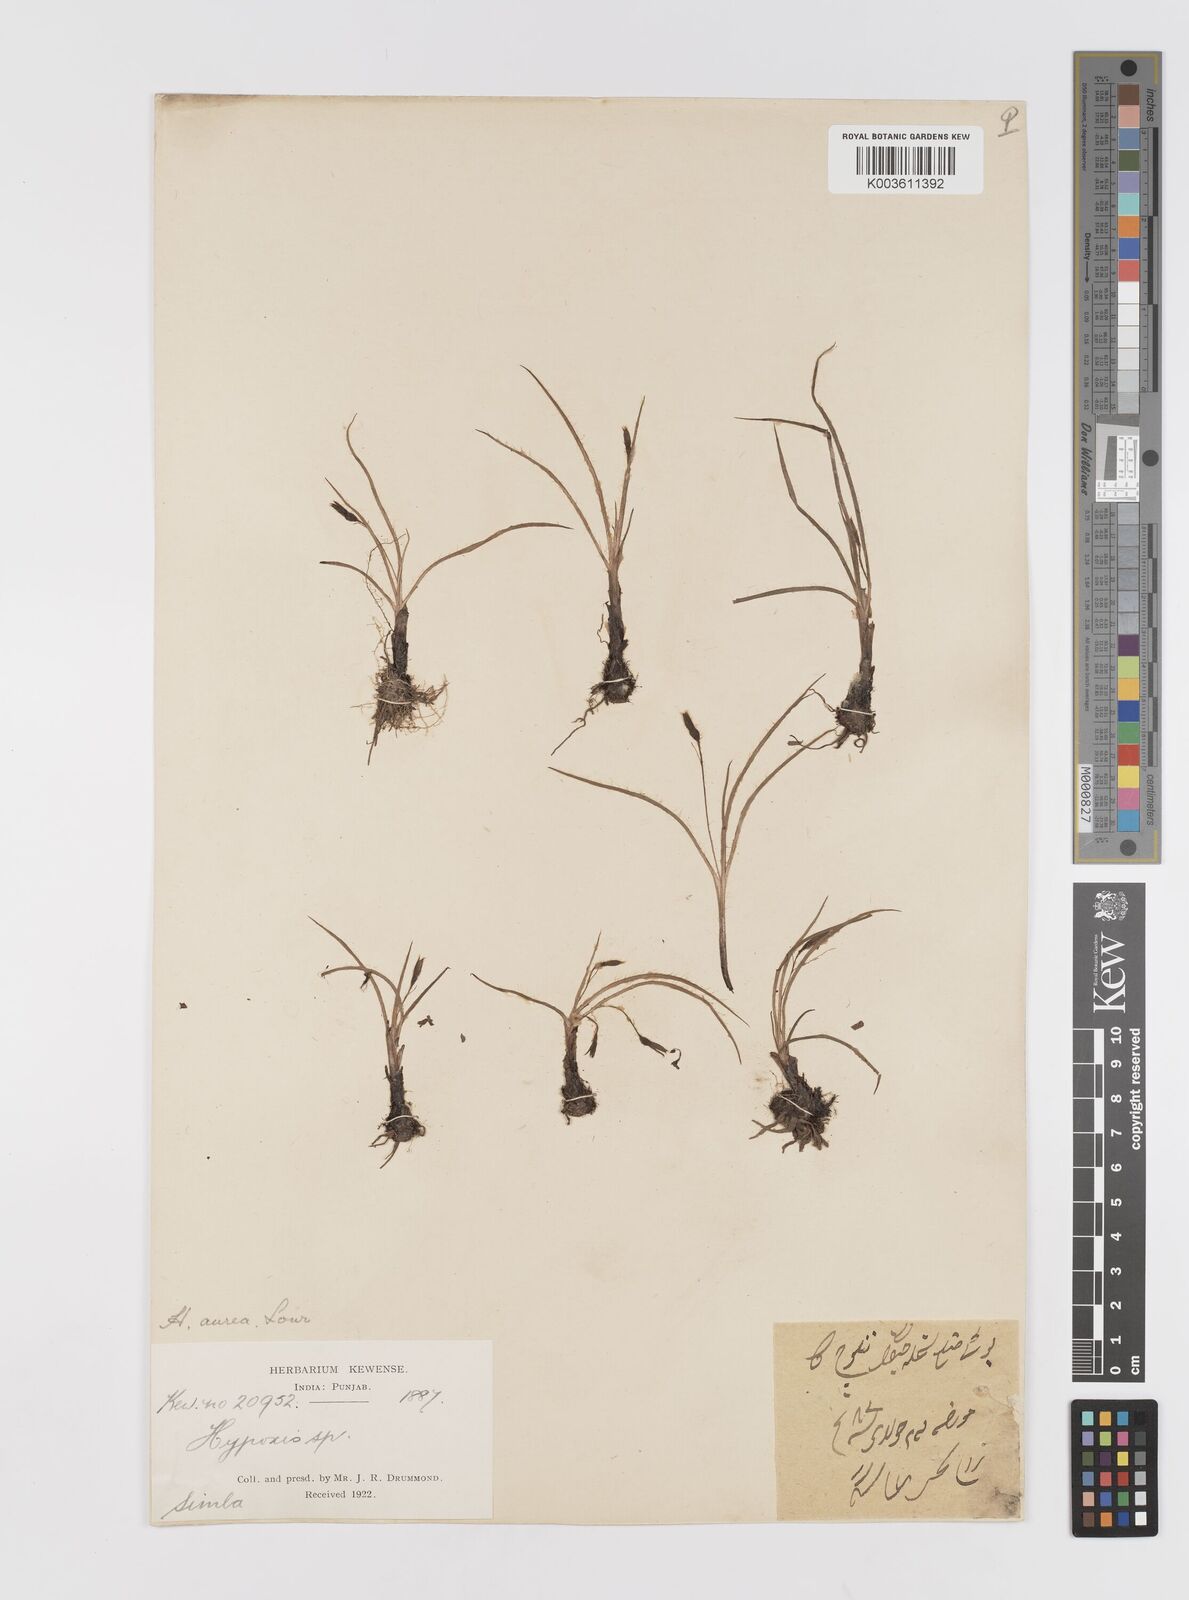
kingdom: Plantae
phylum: Tracheophyta
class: Liliopsida
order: Asparagales
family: Hypoxidaceae
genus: Hypoxis
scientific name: Hypoxis aurea
